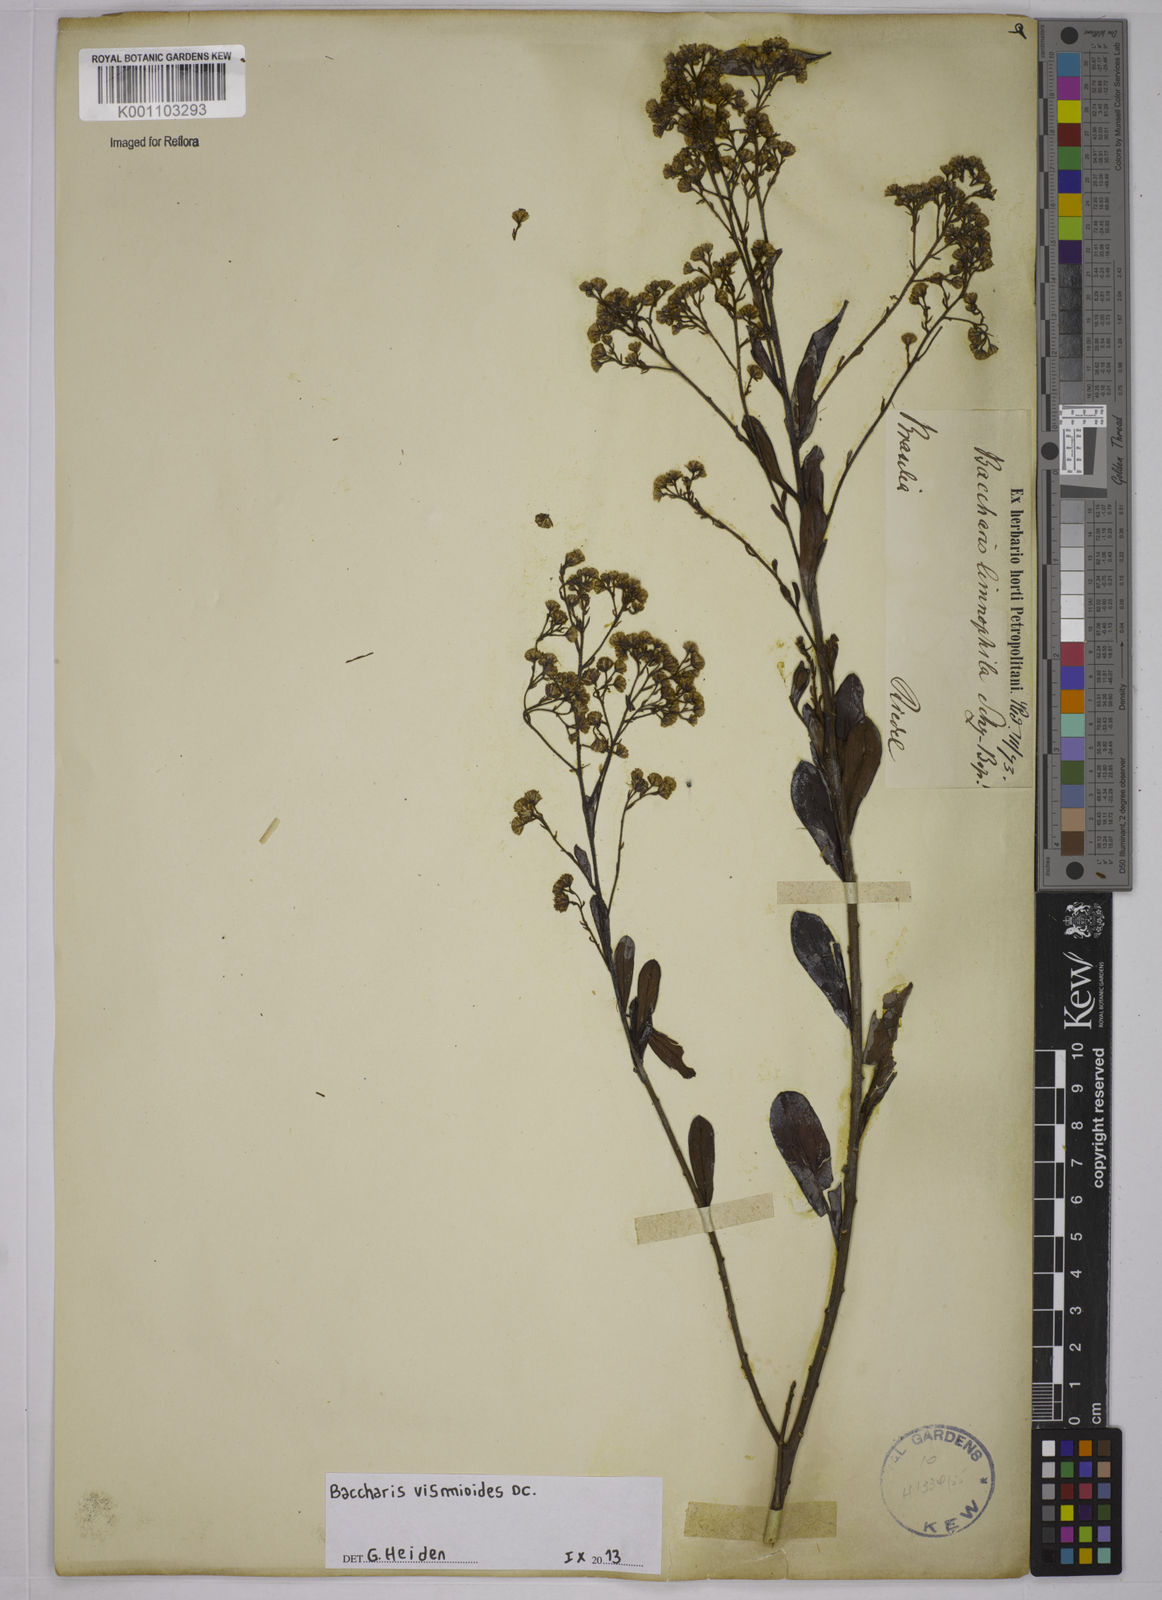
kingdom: Plantae
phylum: Tracheophyta
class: Magnoliopsida
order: Asterales
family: Asteraceae
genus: Baccharis
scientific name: Baccharis vismioides
